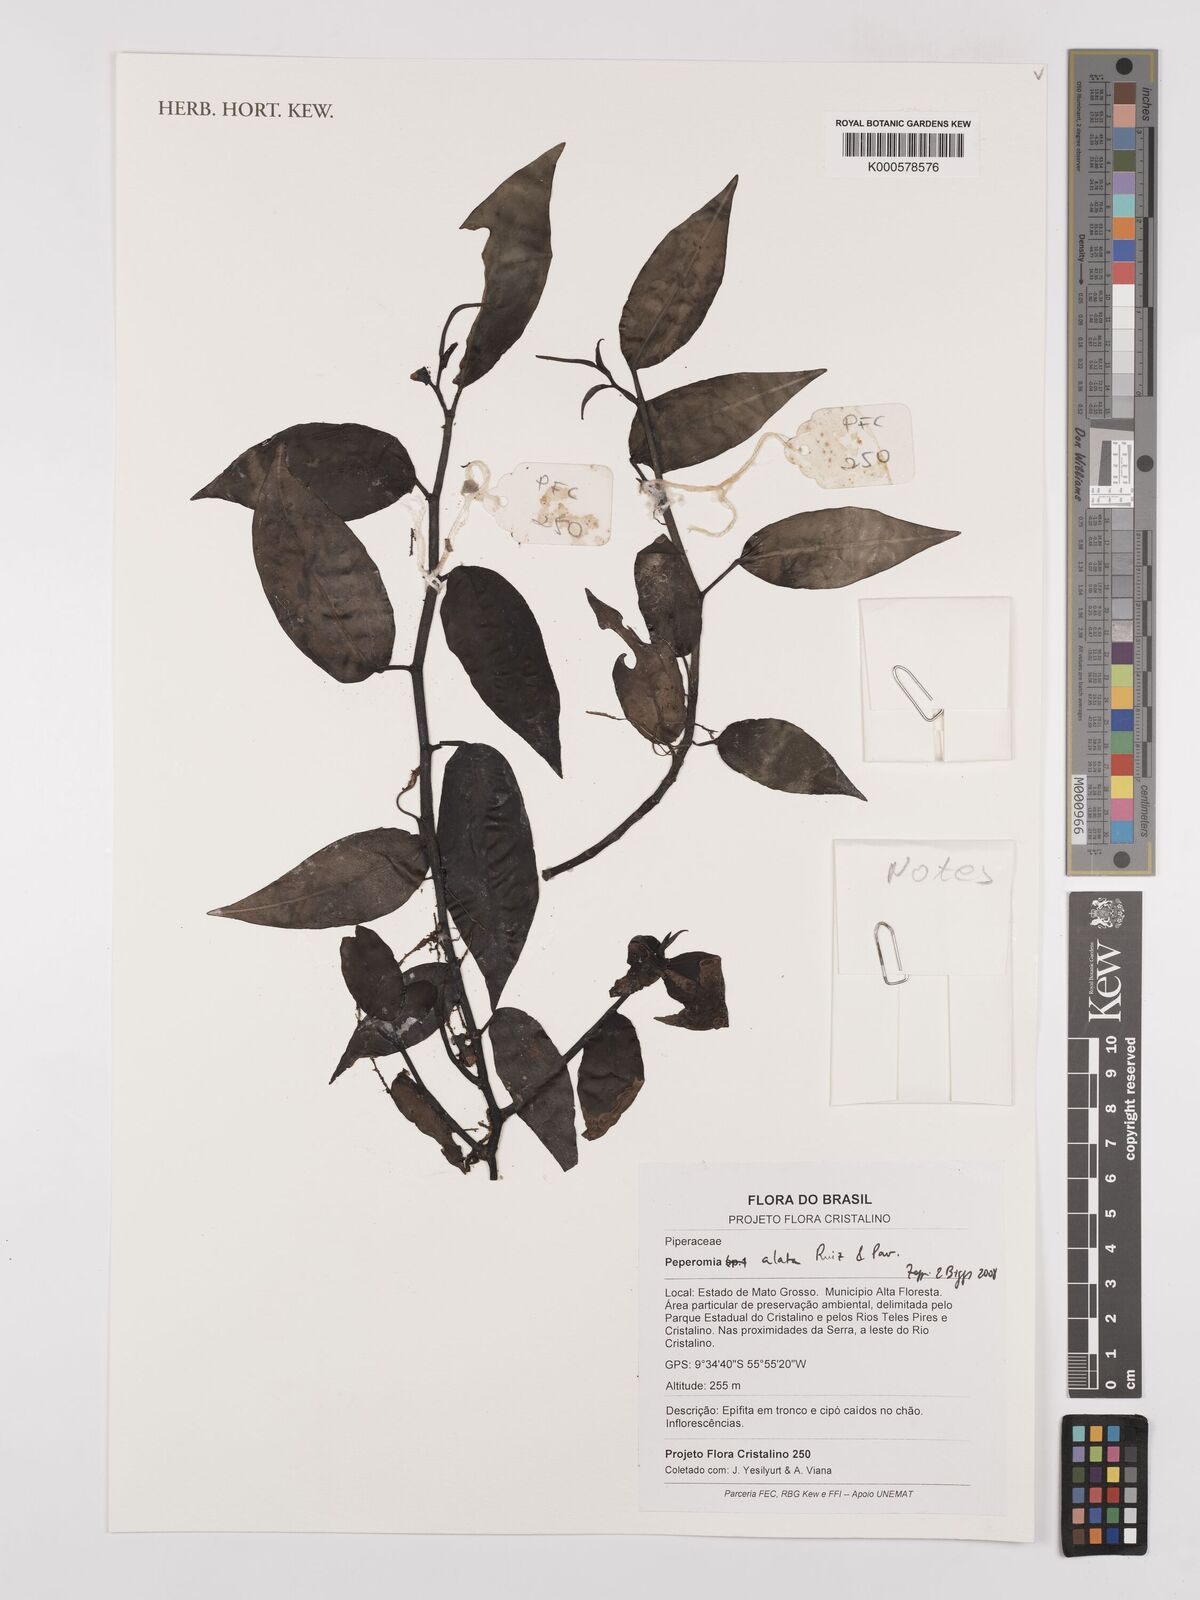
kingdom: Plantae
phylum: Tracheophyta
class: Magnoliopsida
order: Piperales
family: Piperaceae
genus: Peperomia
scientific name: Peperomia alata
